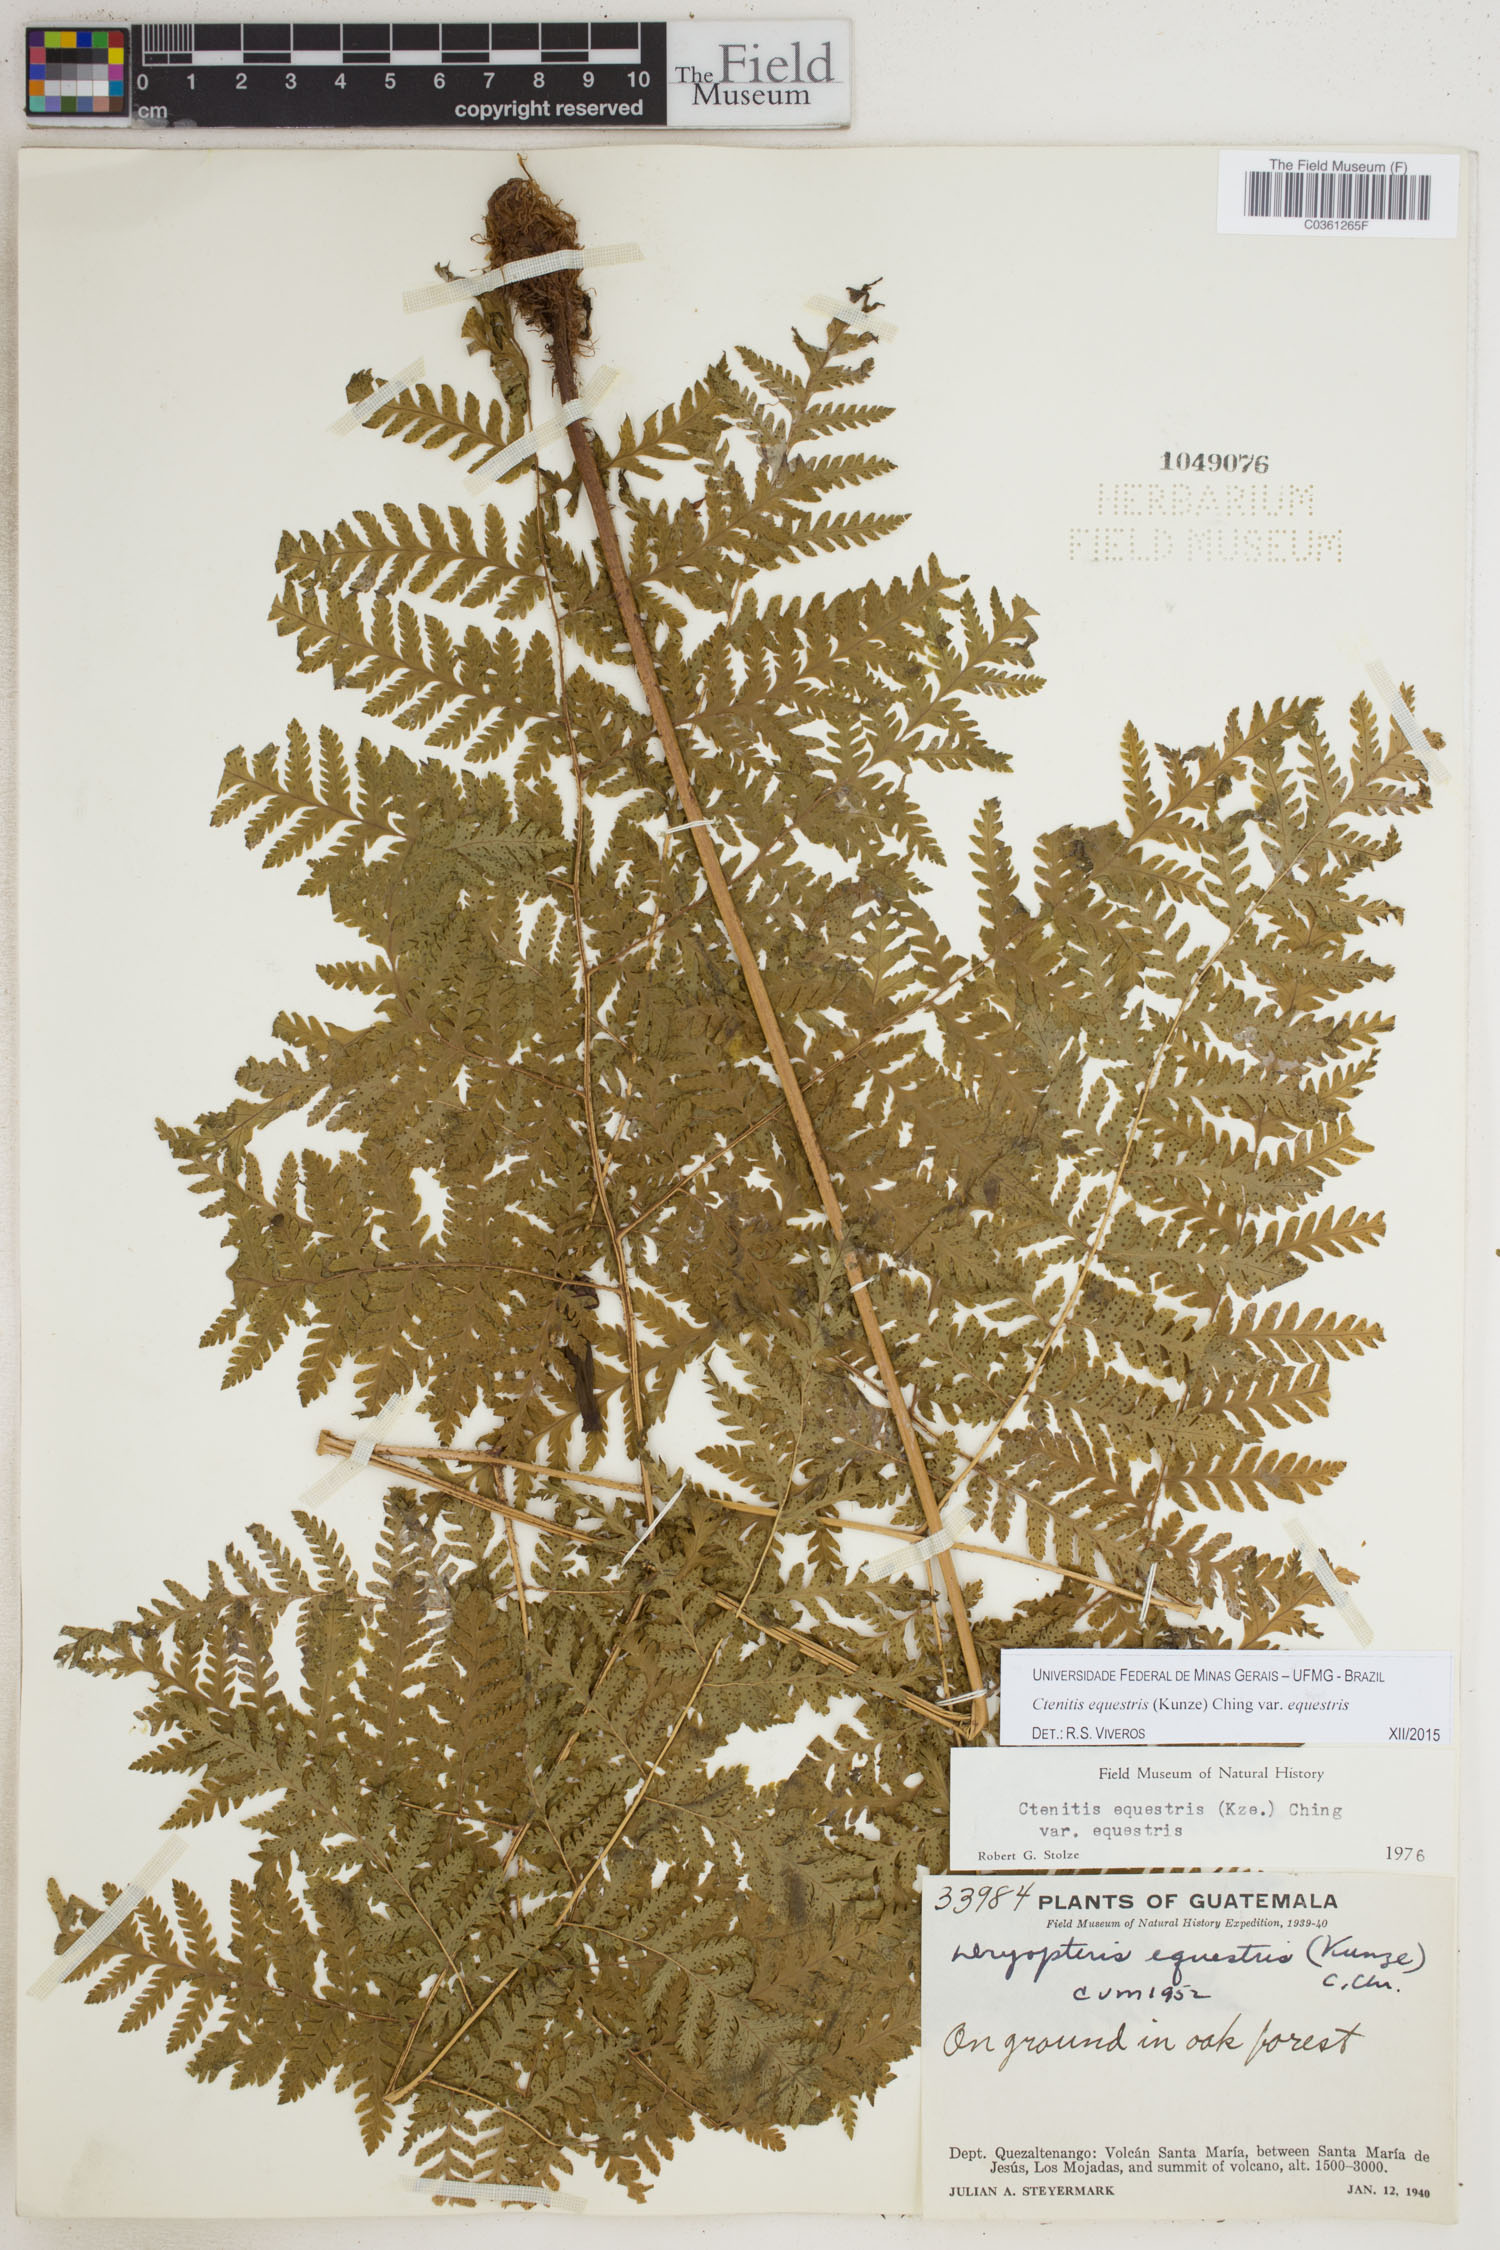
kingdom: Plantae
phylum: Tracheophyta
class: Polypodiopsida
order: Polypodiales
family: Dryopteridaceae
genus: Ctenitis
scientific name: Ctenitis equestris
